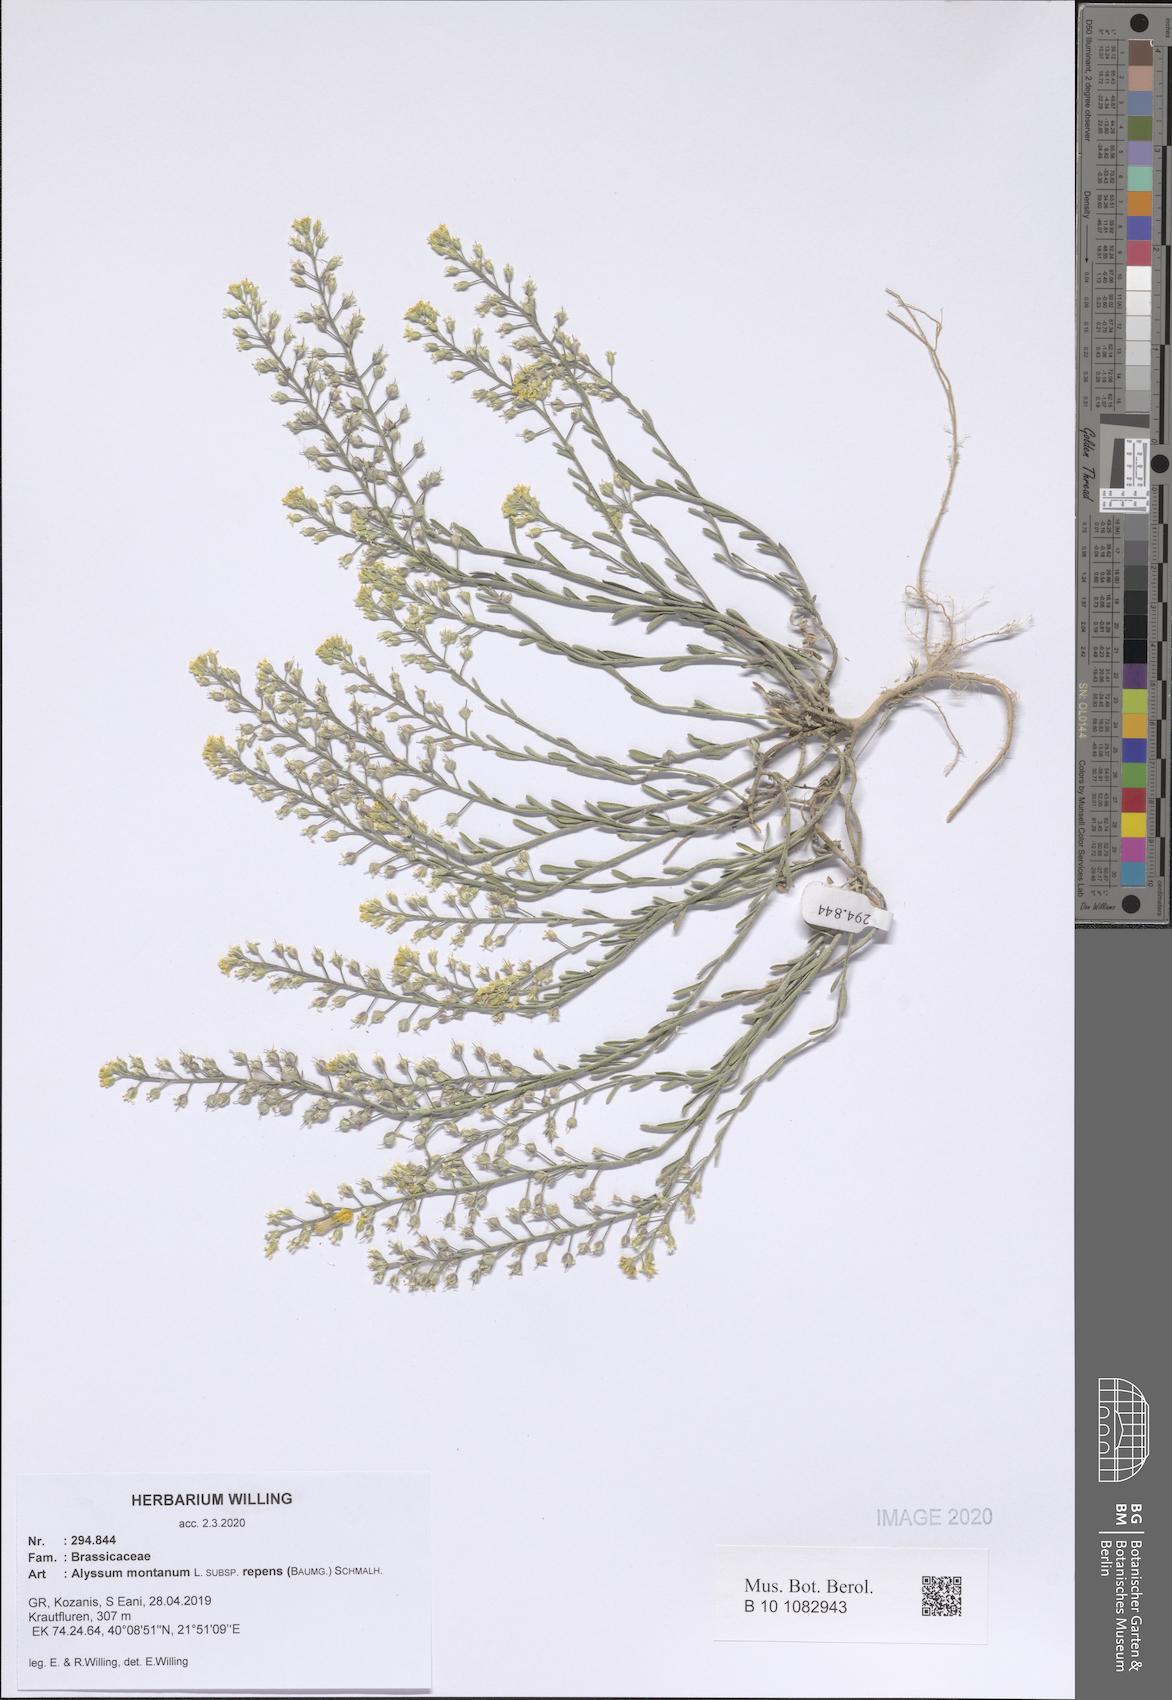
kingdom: Plantae
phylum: Tracheophyta
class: Magnoliopsida
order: Brassicales
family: Brassicaceae
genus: Alyssum
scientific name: Alyssum trichostachyum
